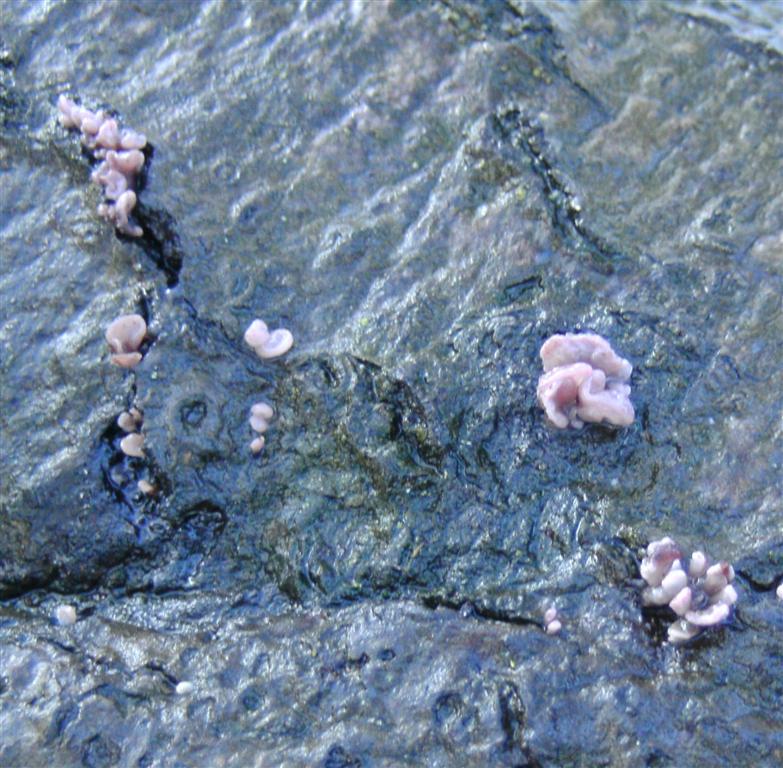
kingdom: Fungi
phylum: Ascomycota
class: Leotiomycetes
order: Helotiales
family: Gelatinodiscaceae
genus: Ascocoryne
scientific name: Ascocoryne sarcoides
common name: rødlilla sejskive
